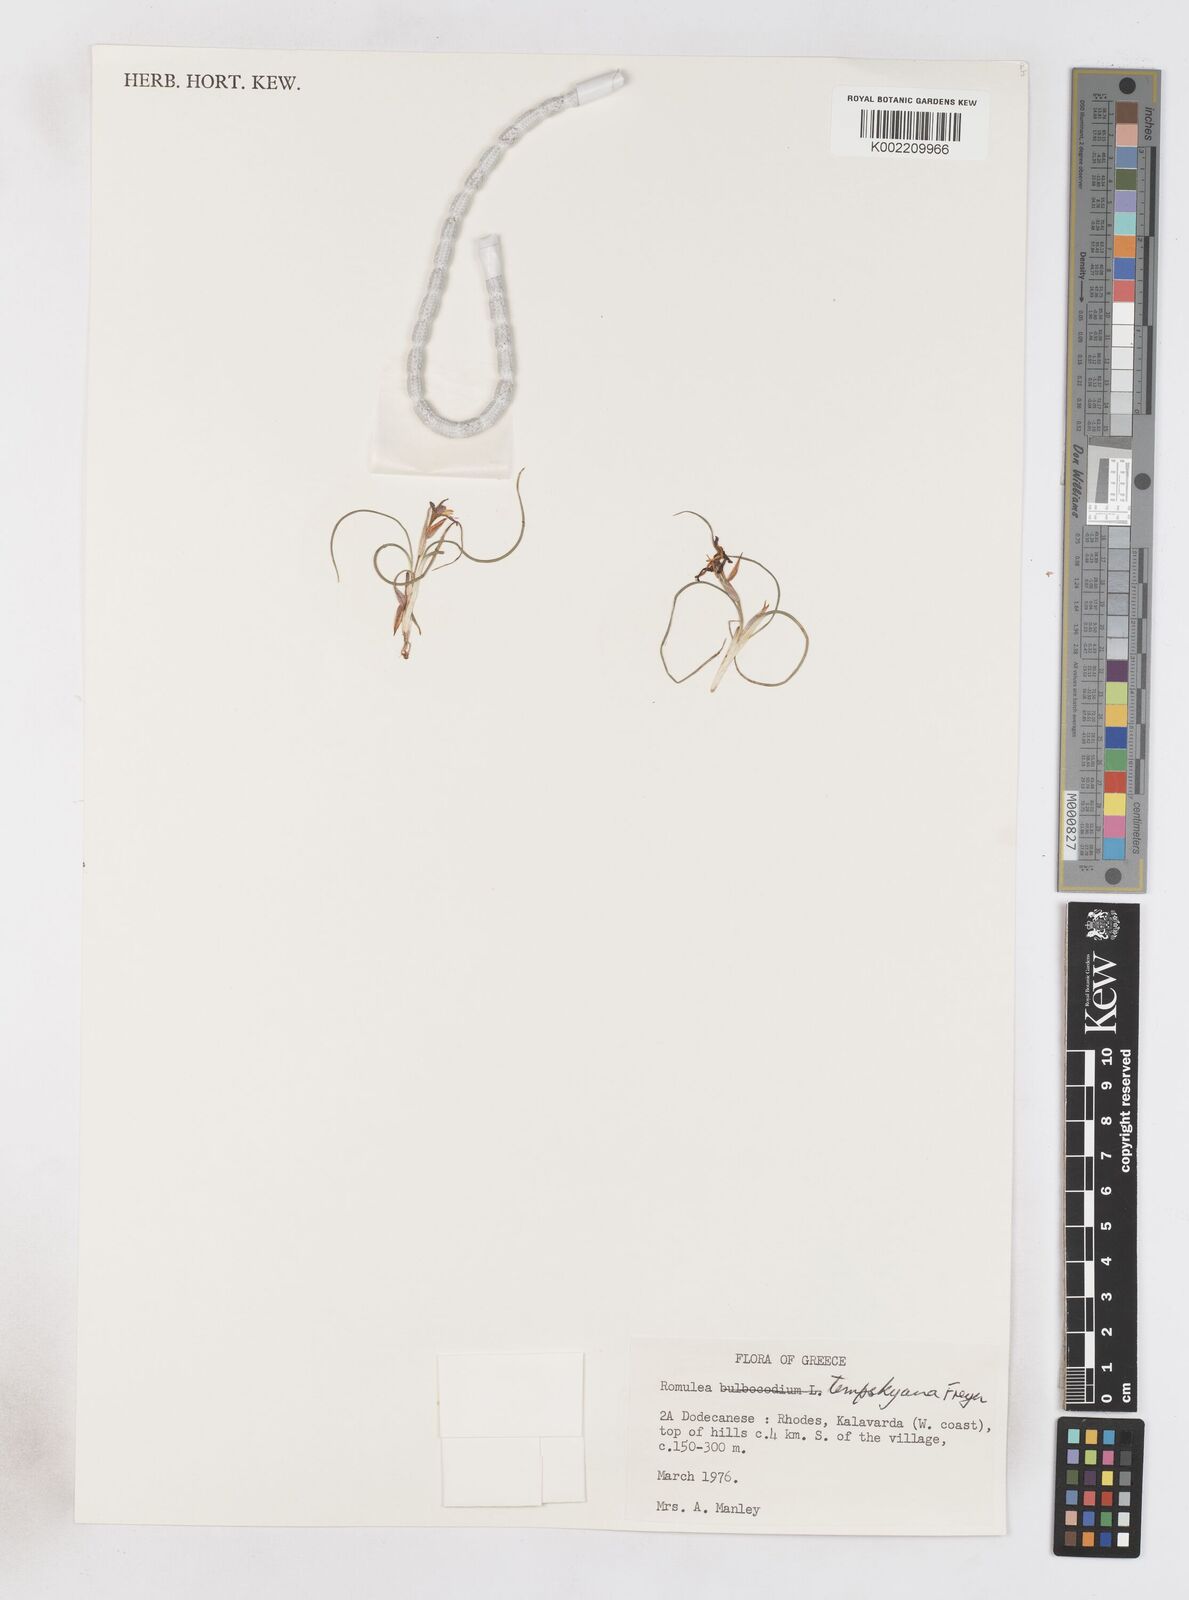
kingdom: Plantae
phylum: Tracheophyta
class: Liliopsida
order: Asparagales
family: Iridaceae
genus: Romulea
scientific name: Romulea tempskyana
